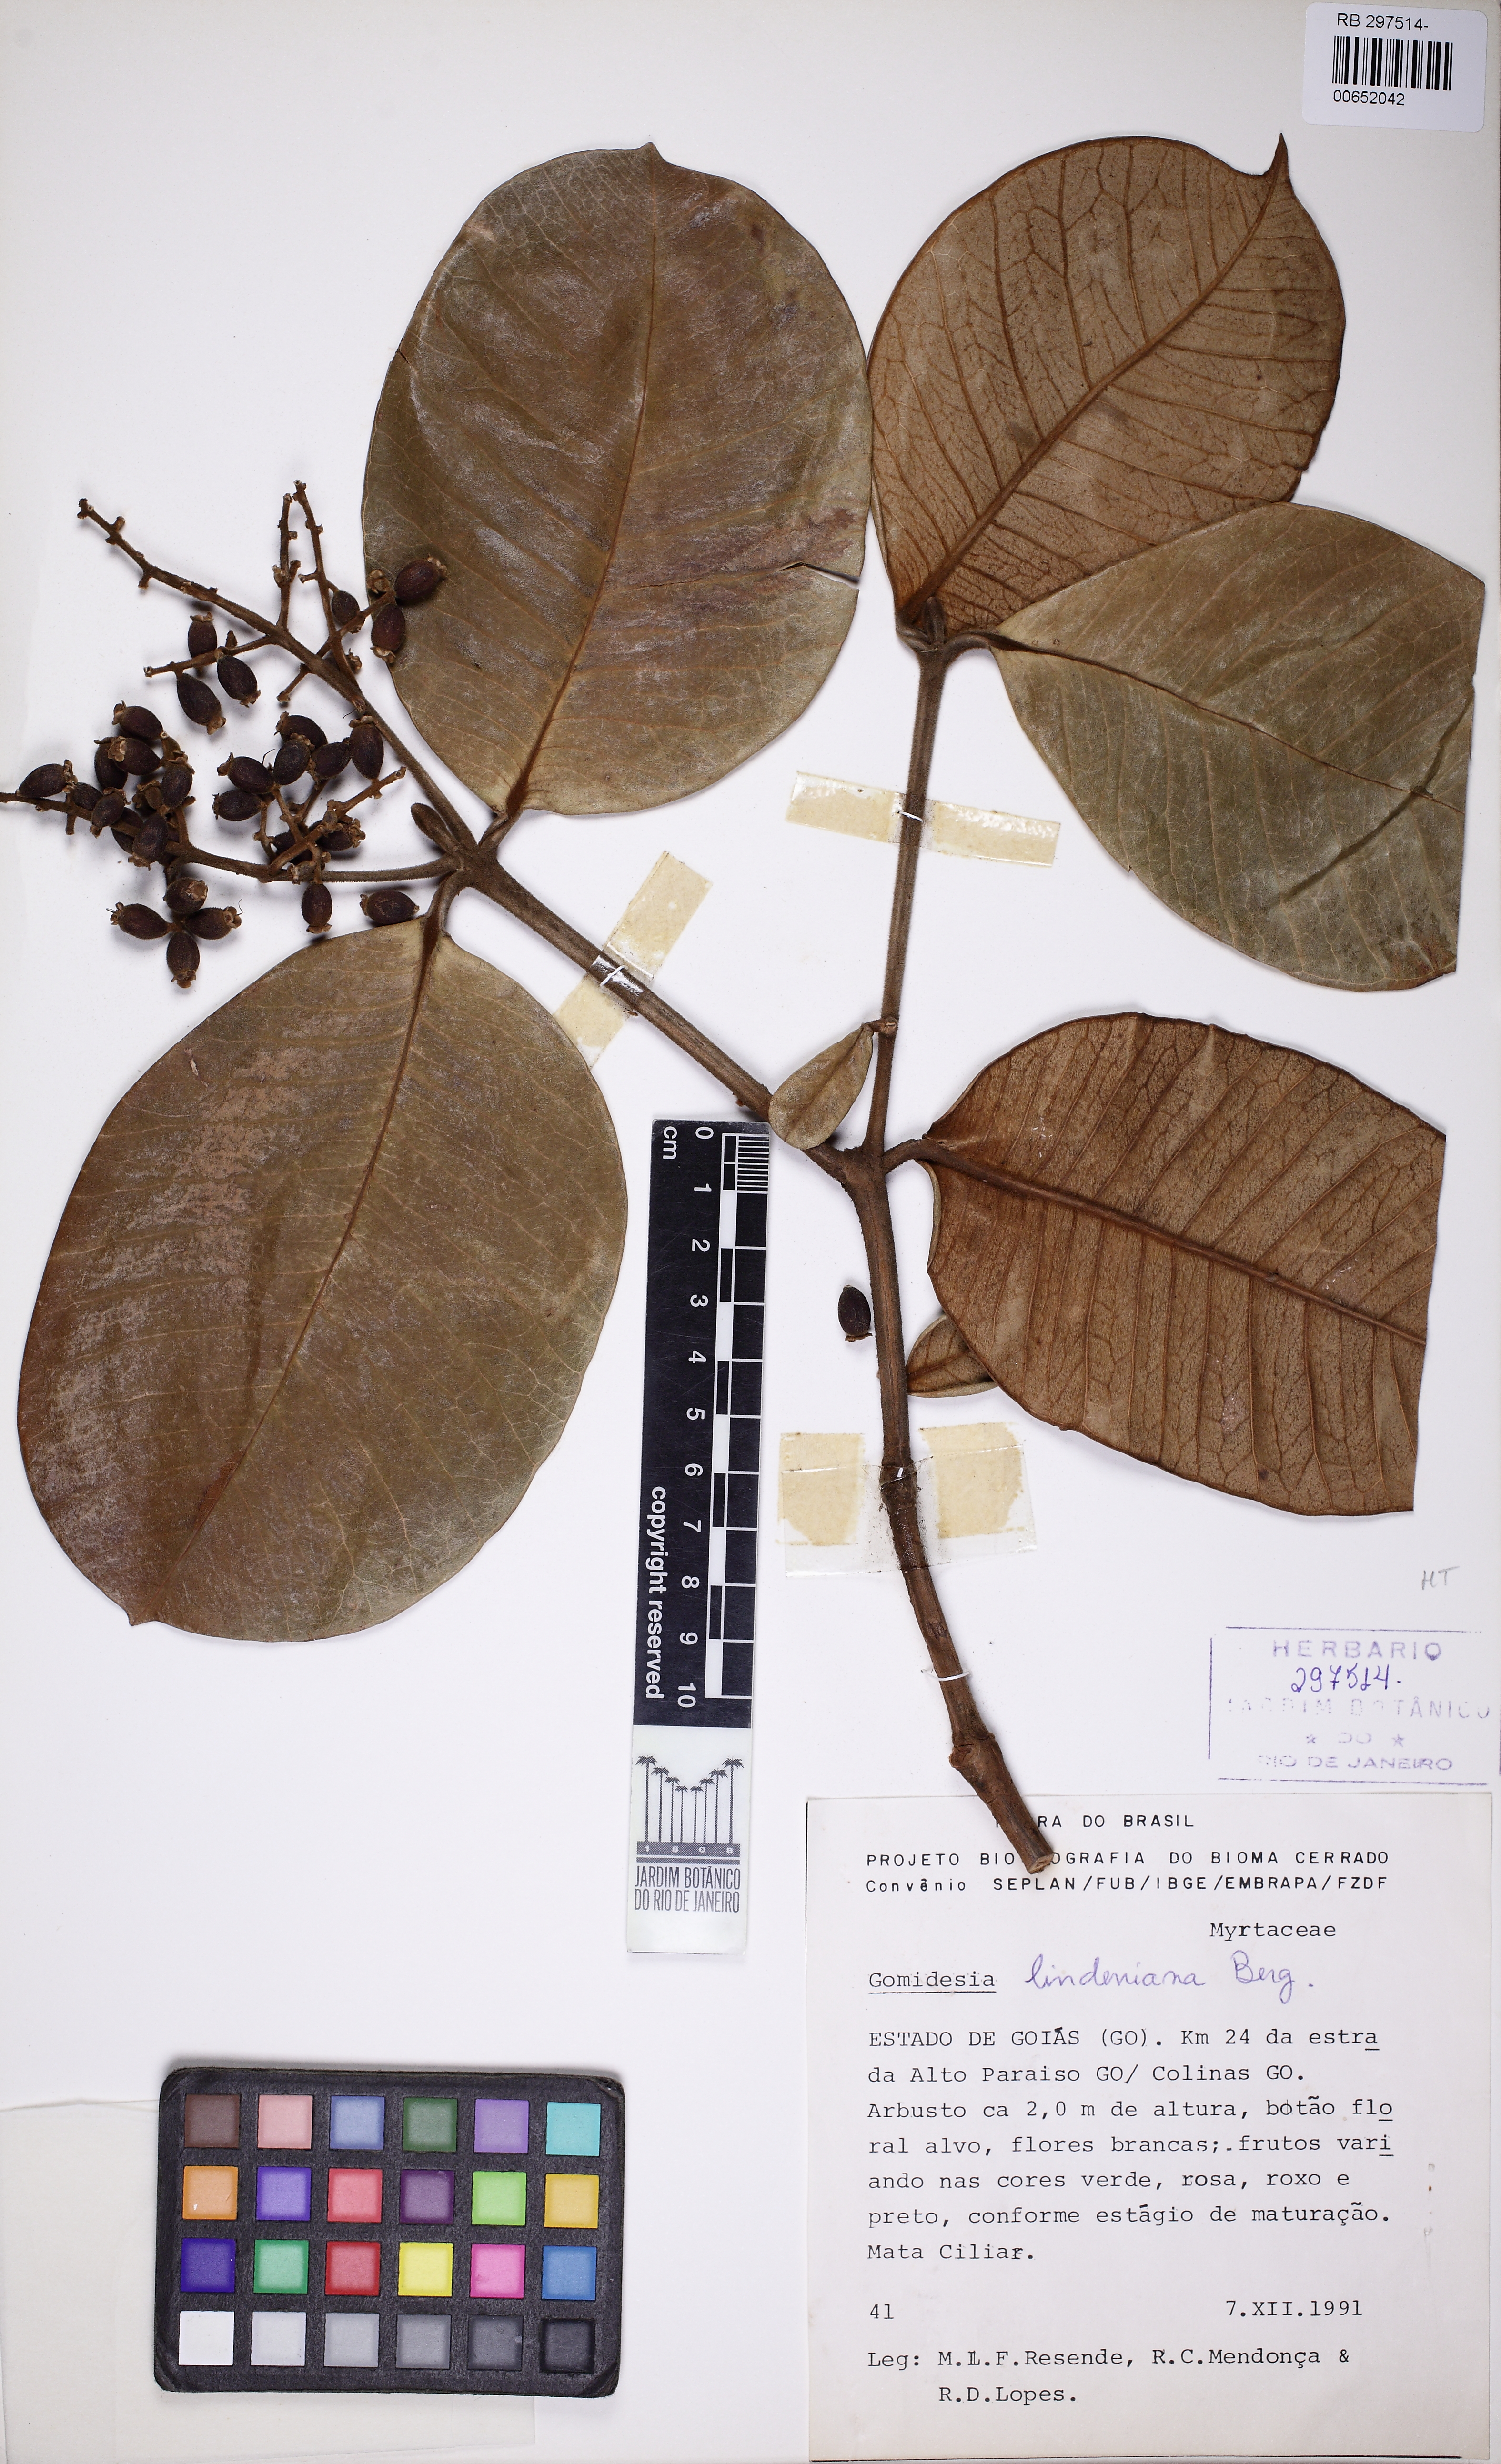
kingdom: Plantae
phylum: Tracheophyta
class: Magnoliopsida
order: Myrtales
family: Myrtaceae
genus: Myrcia
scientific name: Myrcia fenzliana
